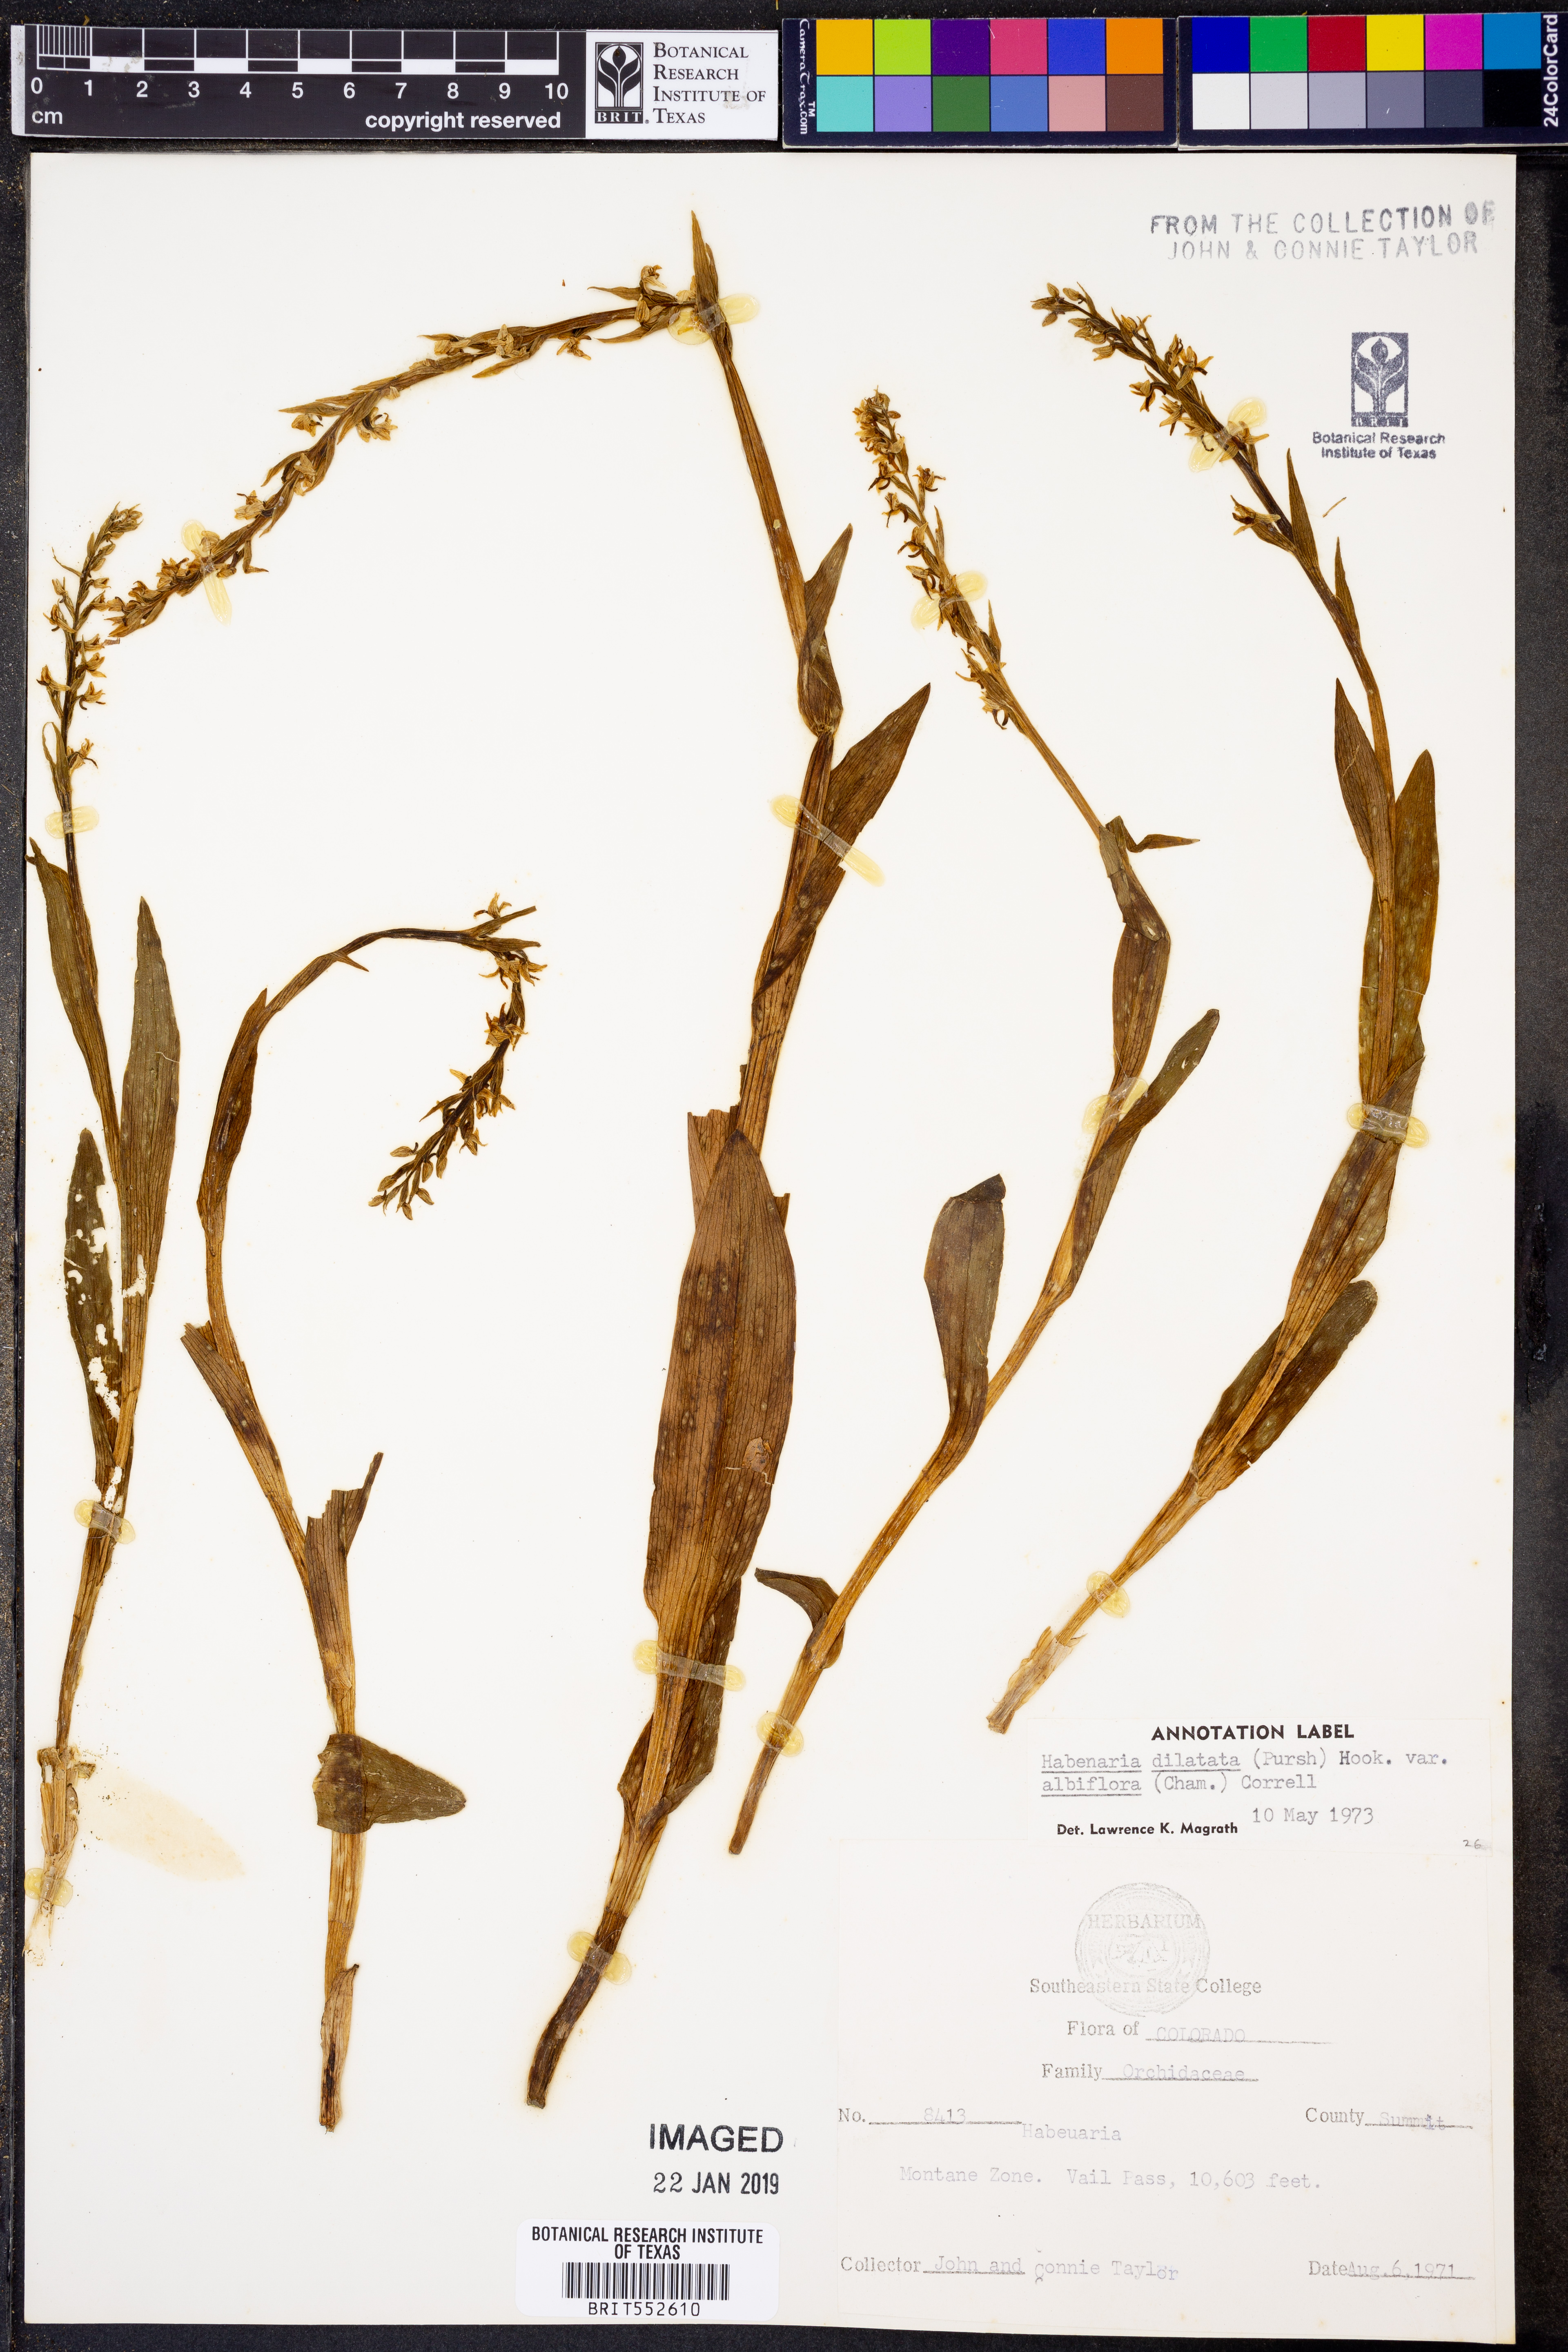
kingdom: Plantae
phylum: Tracheophyta
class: Liliopsida
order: Asparagales
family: Orchidaceae
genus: Platanthera
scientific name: Platanthera dilatata
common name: Bog candles
